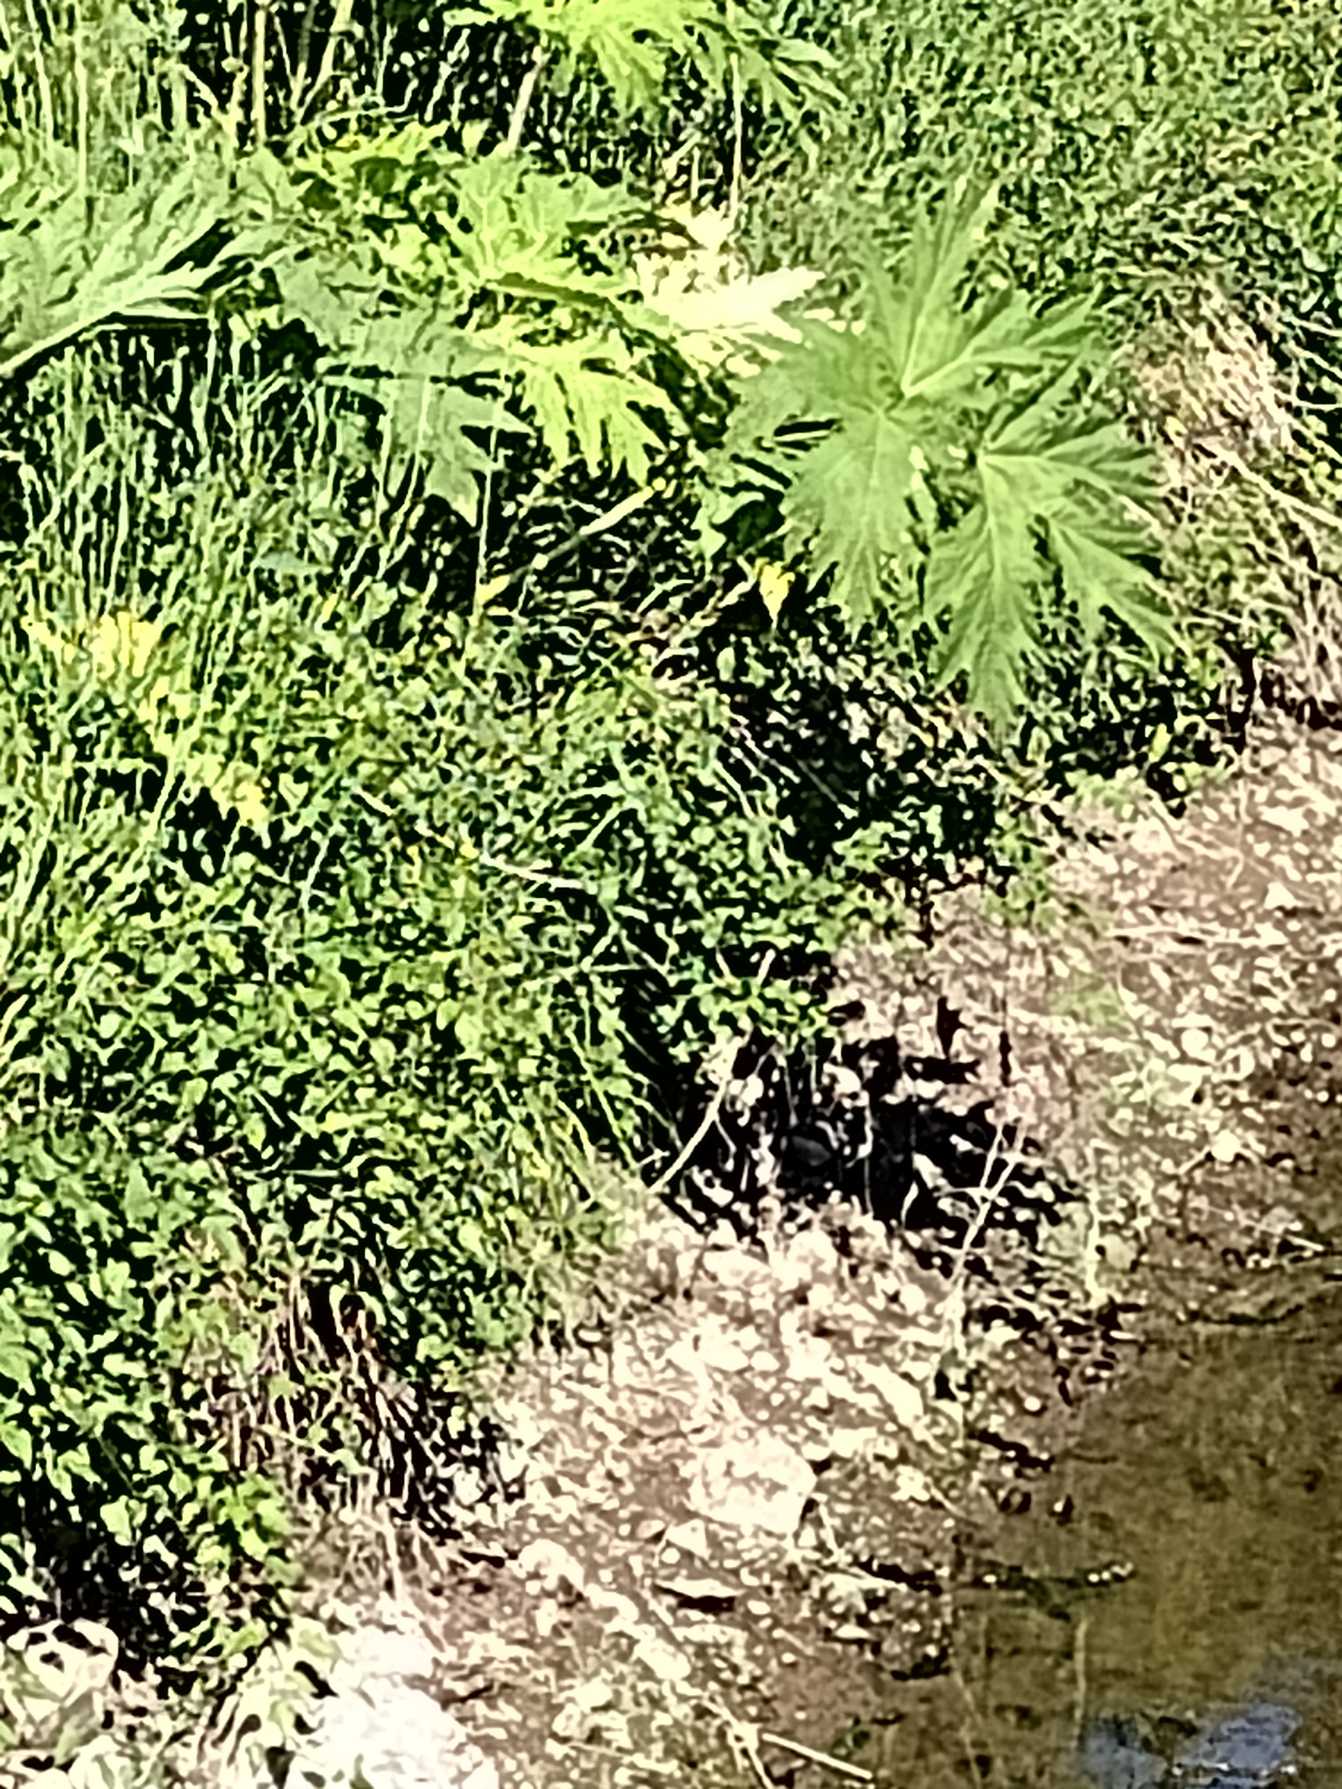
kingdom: Plantae
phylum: Tracheophyta
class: Magnoliopsida
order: Apiales
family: Apiaceae
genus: Heracleum
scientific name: Heracleum mantegazzianum
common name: Kæmpe-bjørneklo
